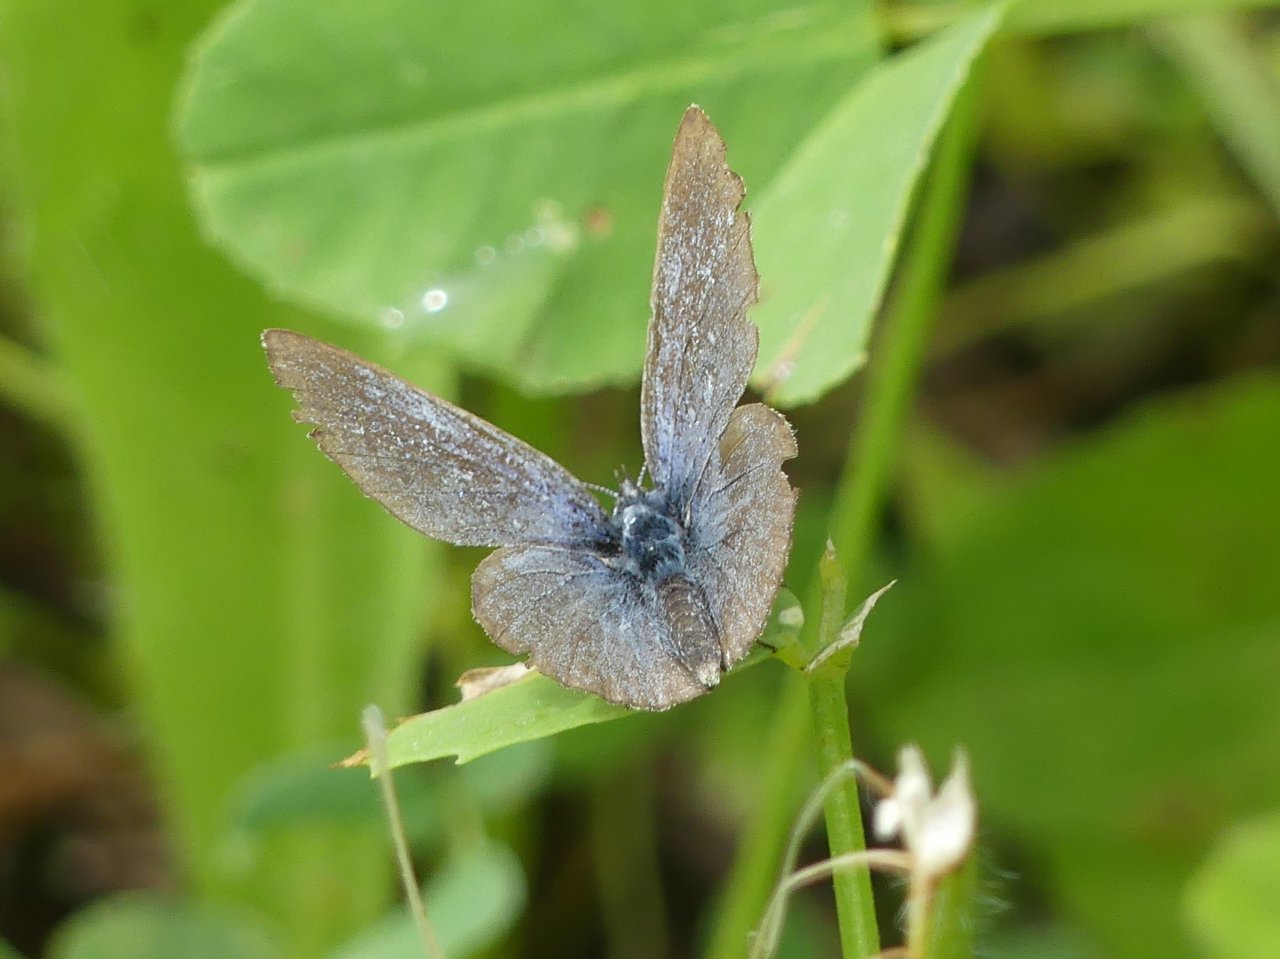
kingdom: Animalia
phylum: Arthropoda
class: Insecta
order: Lepidoptera
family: Lycaenidae
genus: Glaucopsyche
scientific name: Glaucopsyche lygdamus
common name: Silvery Blue
